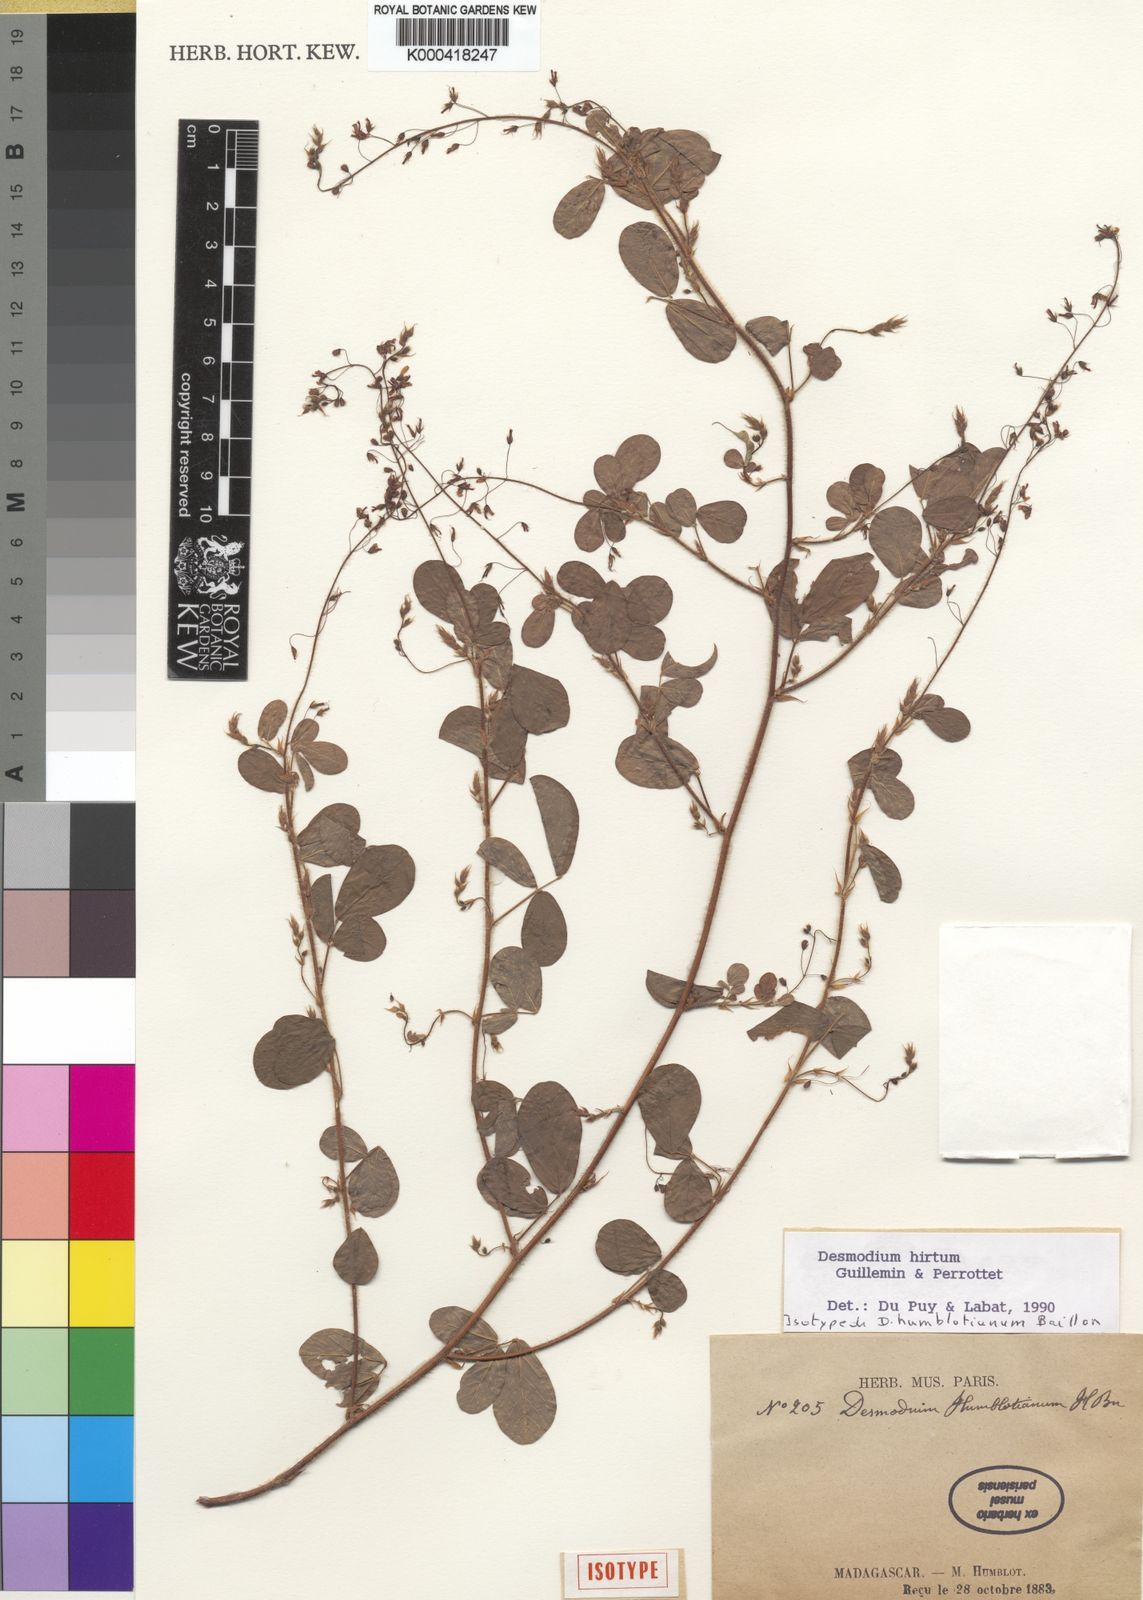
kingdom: Plantae
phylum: Tracheophyta
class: Magnoliopsida
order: Fabales
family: Fabaceae
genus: Grona
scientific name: Grona hirta
